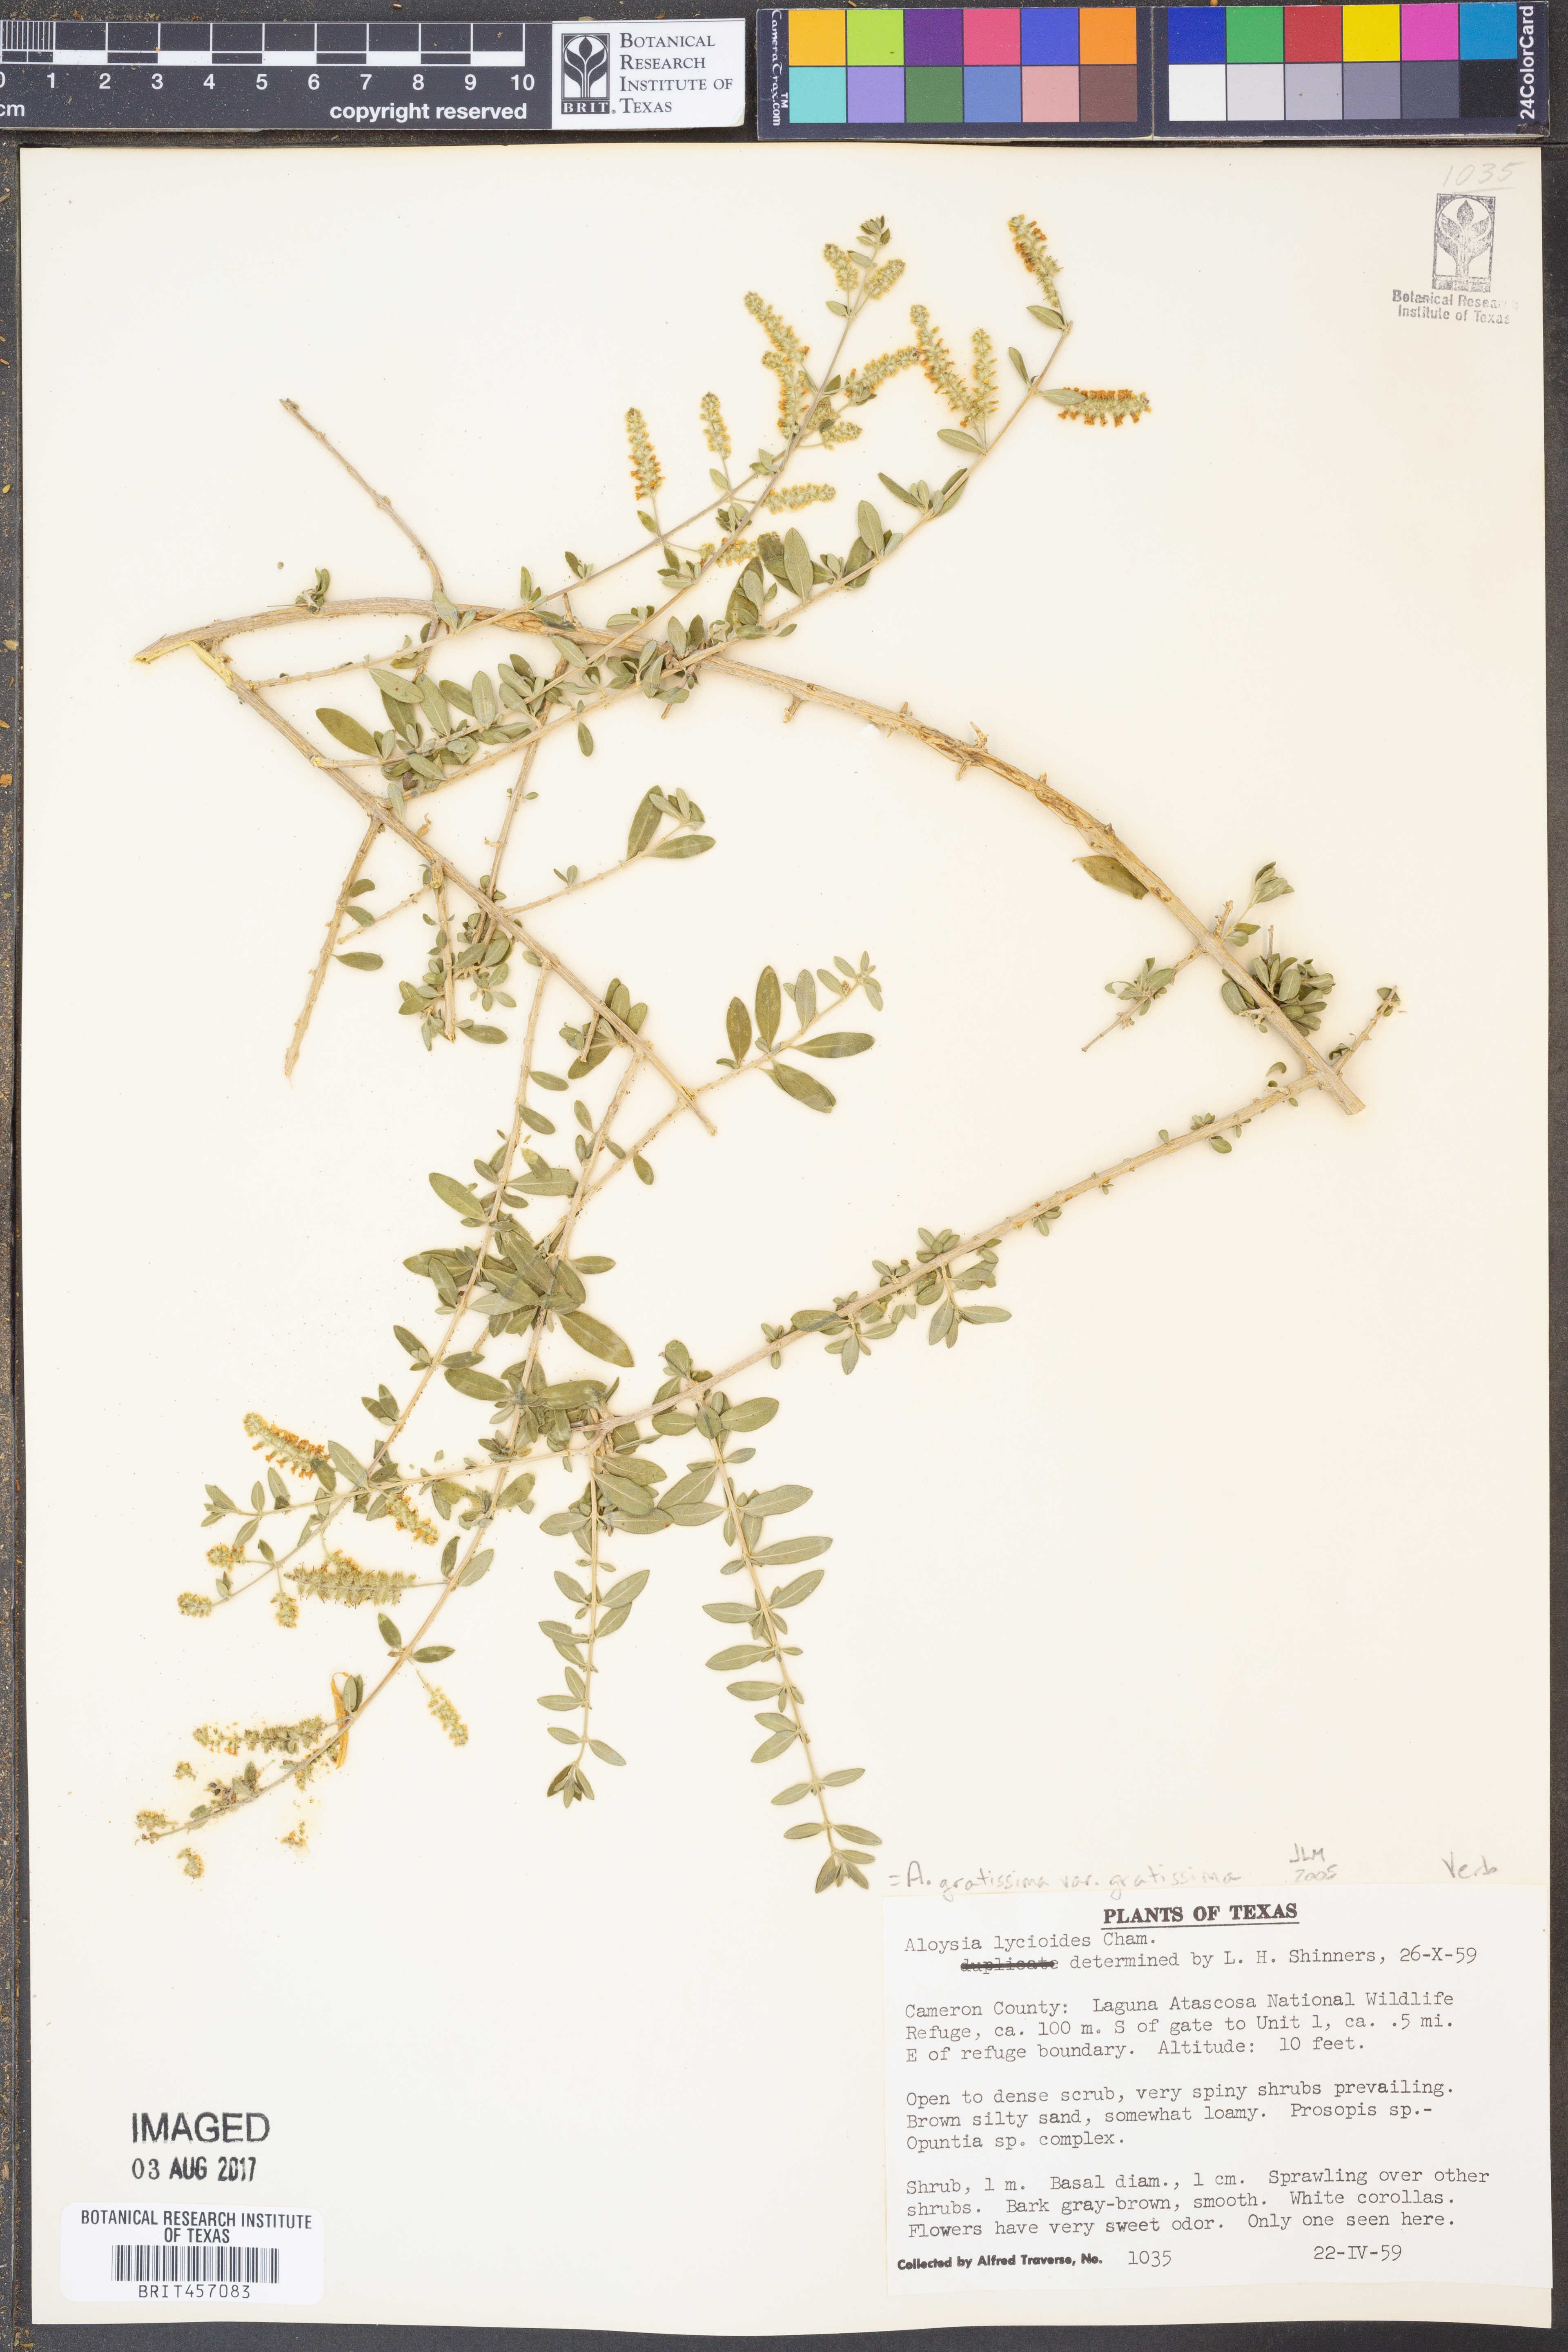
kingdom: Plantae
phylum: Tracheophyta
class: Magnoliopsida
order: Lamiales
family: Verbenaceae
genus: Aloysia
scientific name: Aloysia gratissima
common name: Common bee-brush
